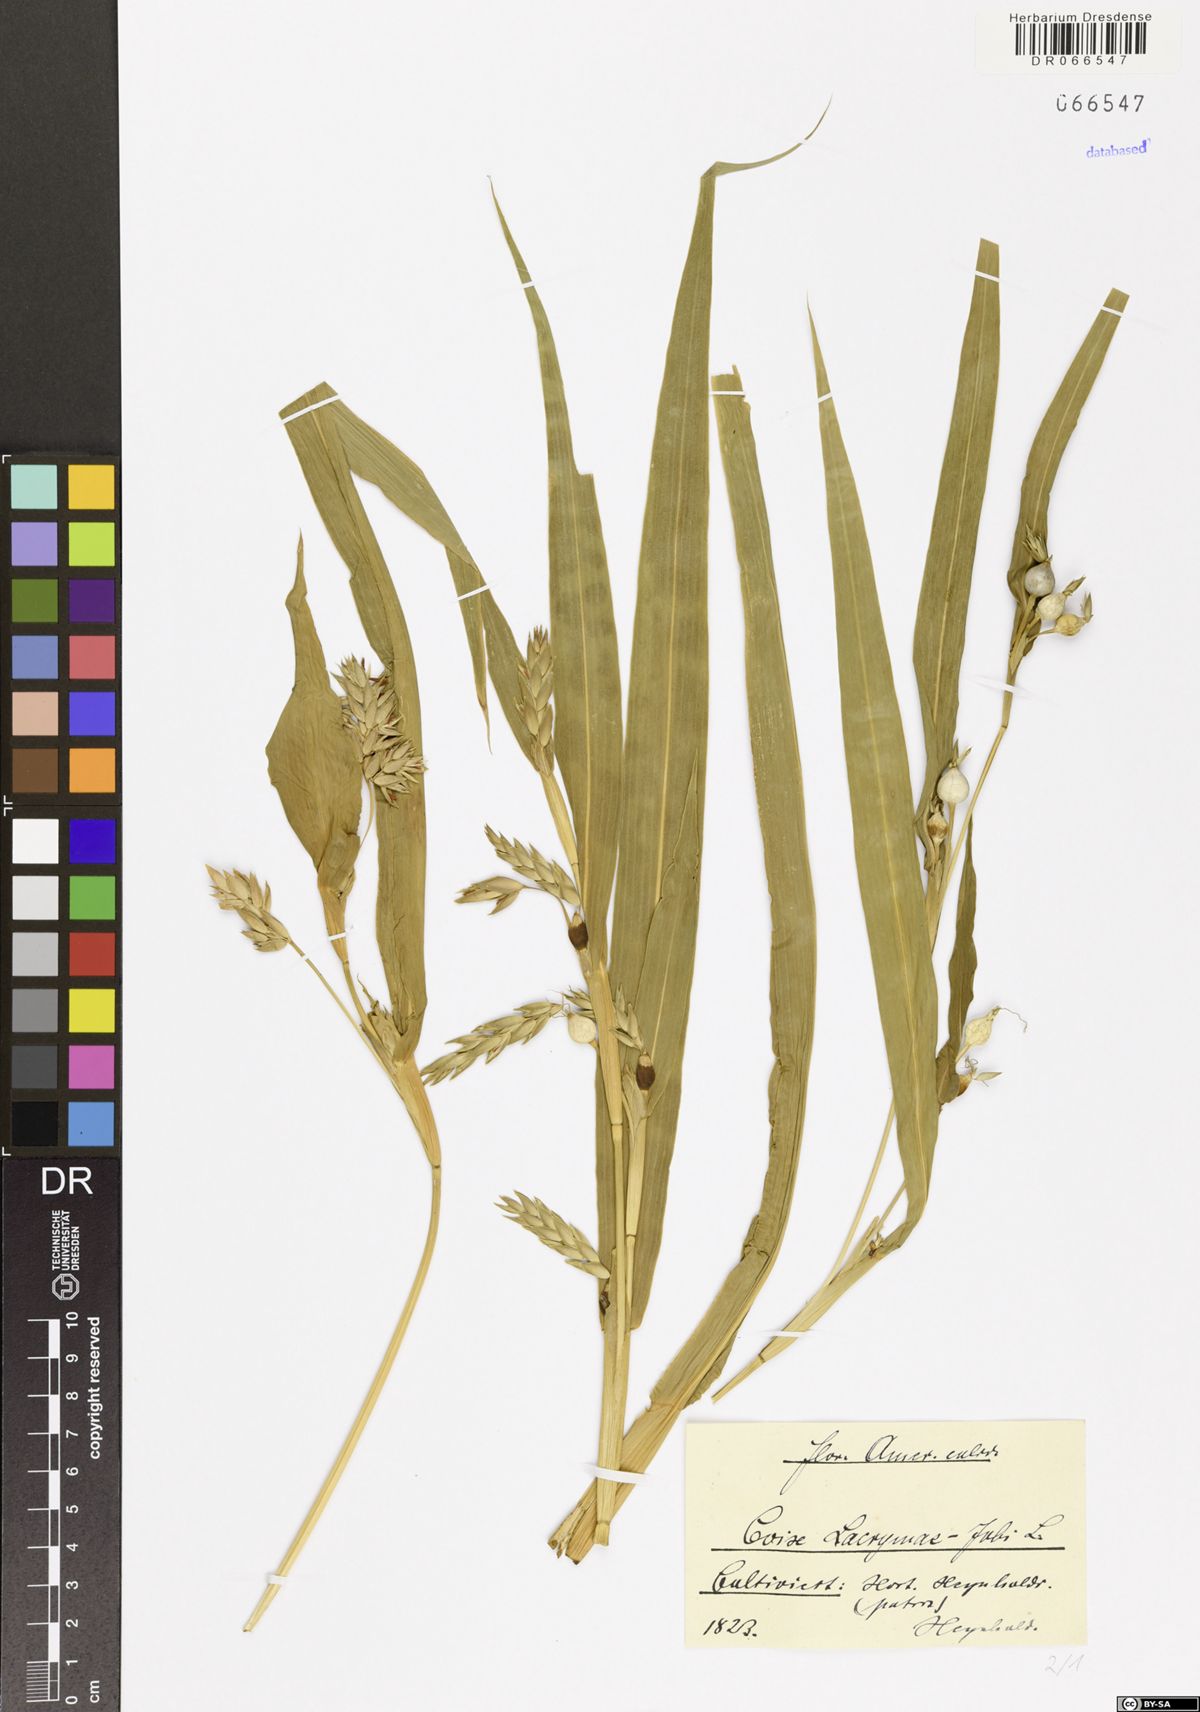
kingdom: Plantae
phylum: Tracheophyta
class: Liliopsida
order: Poales
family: Poaceae
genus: Coix
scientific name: Coix lacryma-jobi
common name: Job's tears
